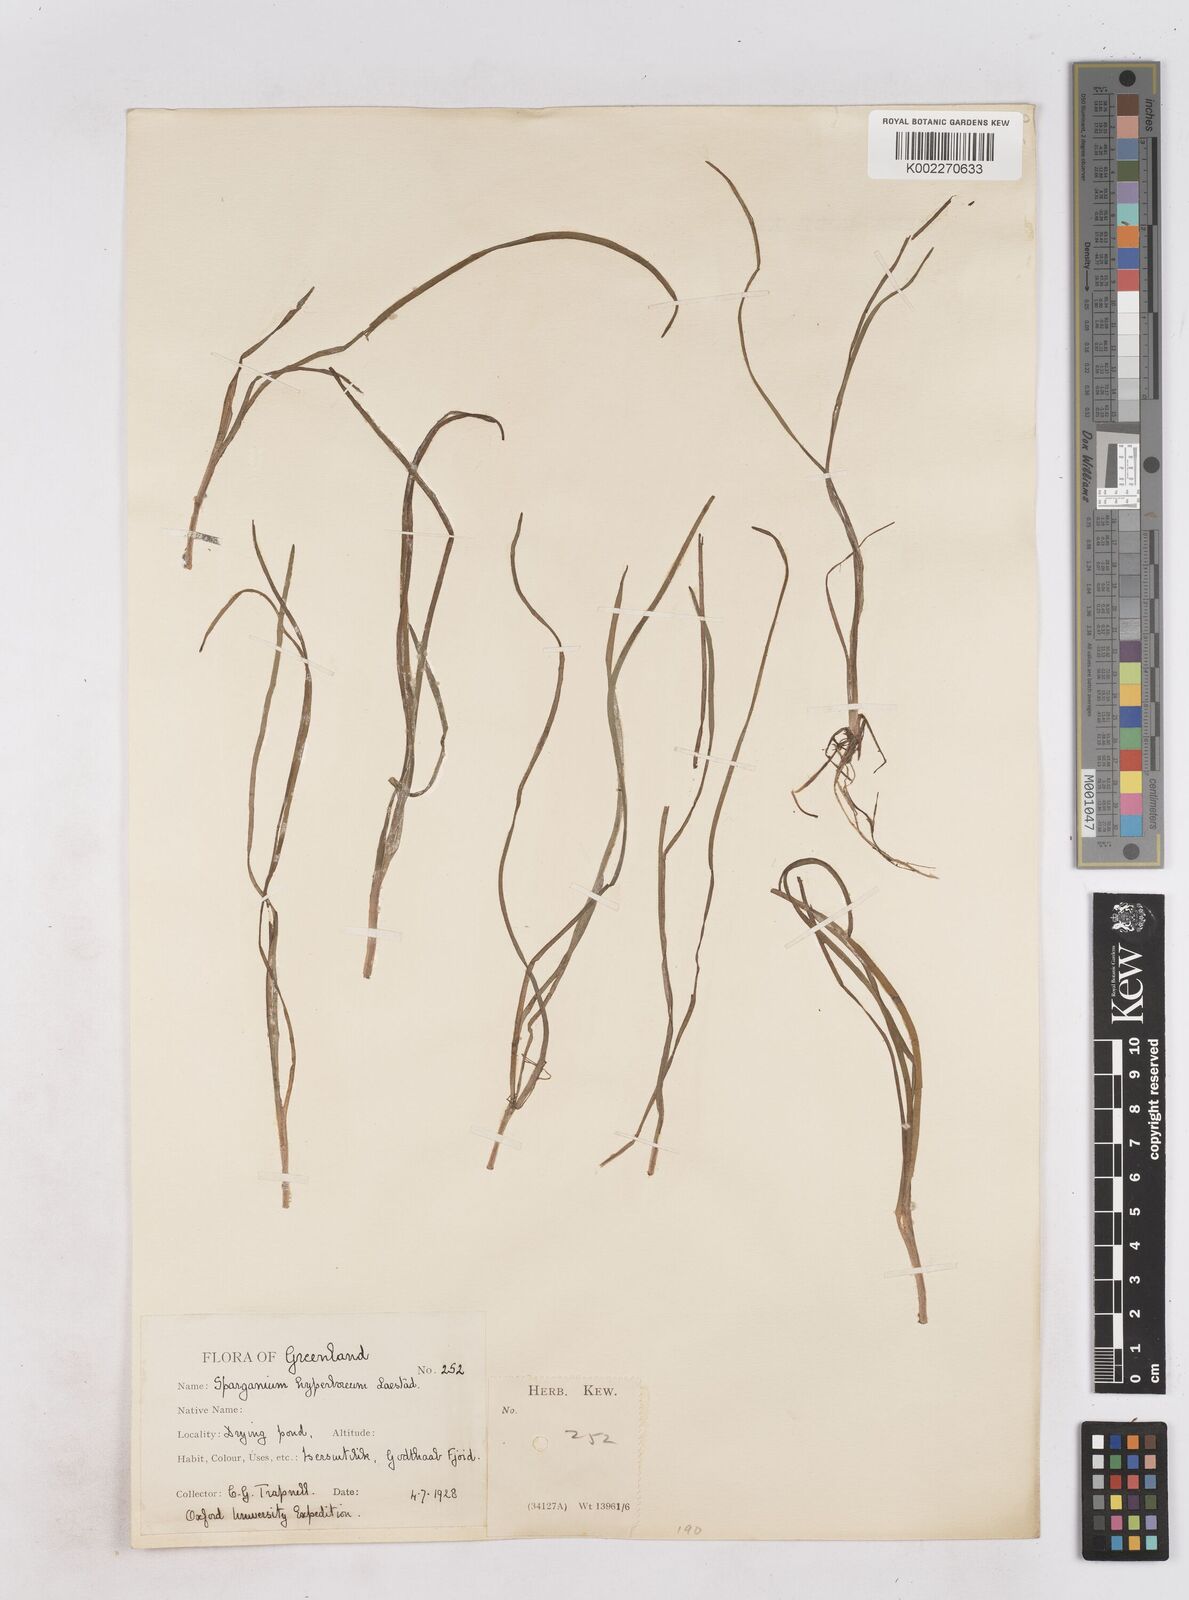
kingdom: Plantae
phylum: Tracheophyta
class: Liliopsida
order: Poales
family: Typhaceae
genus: Sparganium
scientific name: Sparganium hyperboreum
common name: Arctic burreed
